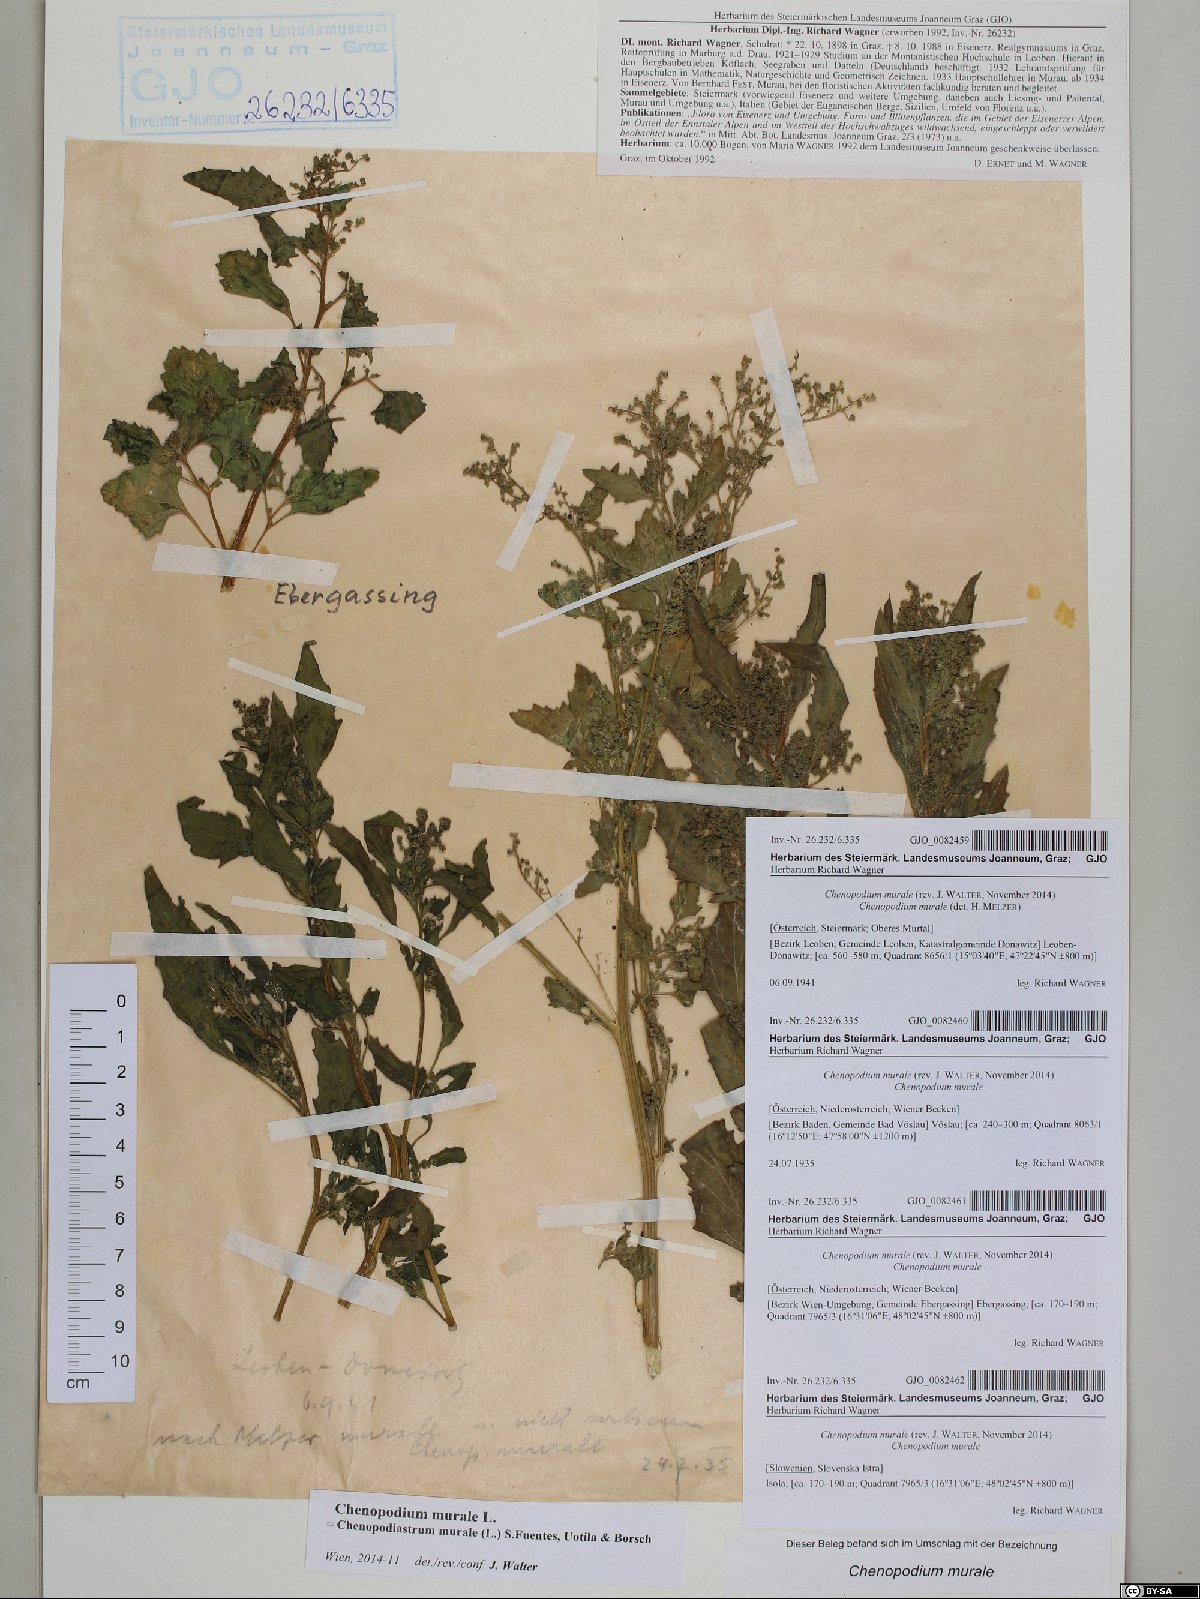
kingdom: Plantae
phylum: Tracheophyta
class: Magnoliopsida
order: Caryophyllales
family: Amaranthaceae
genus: Chenopodiastrum
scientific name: Chenopodiastrum murale
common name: Sowbane
